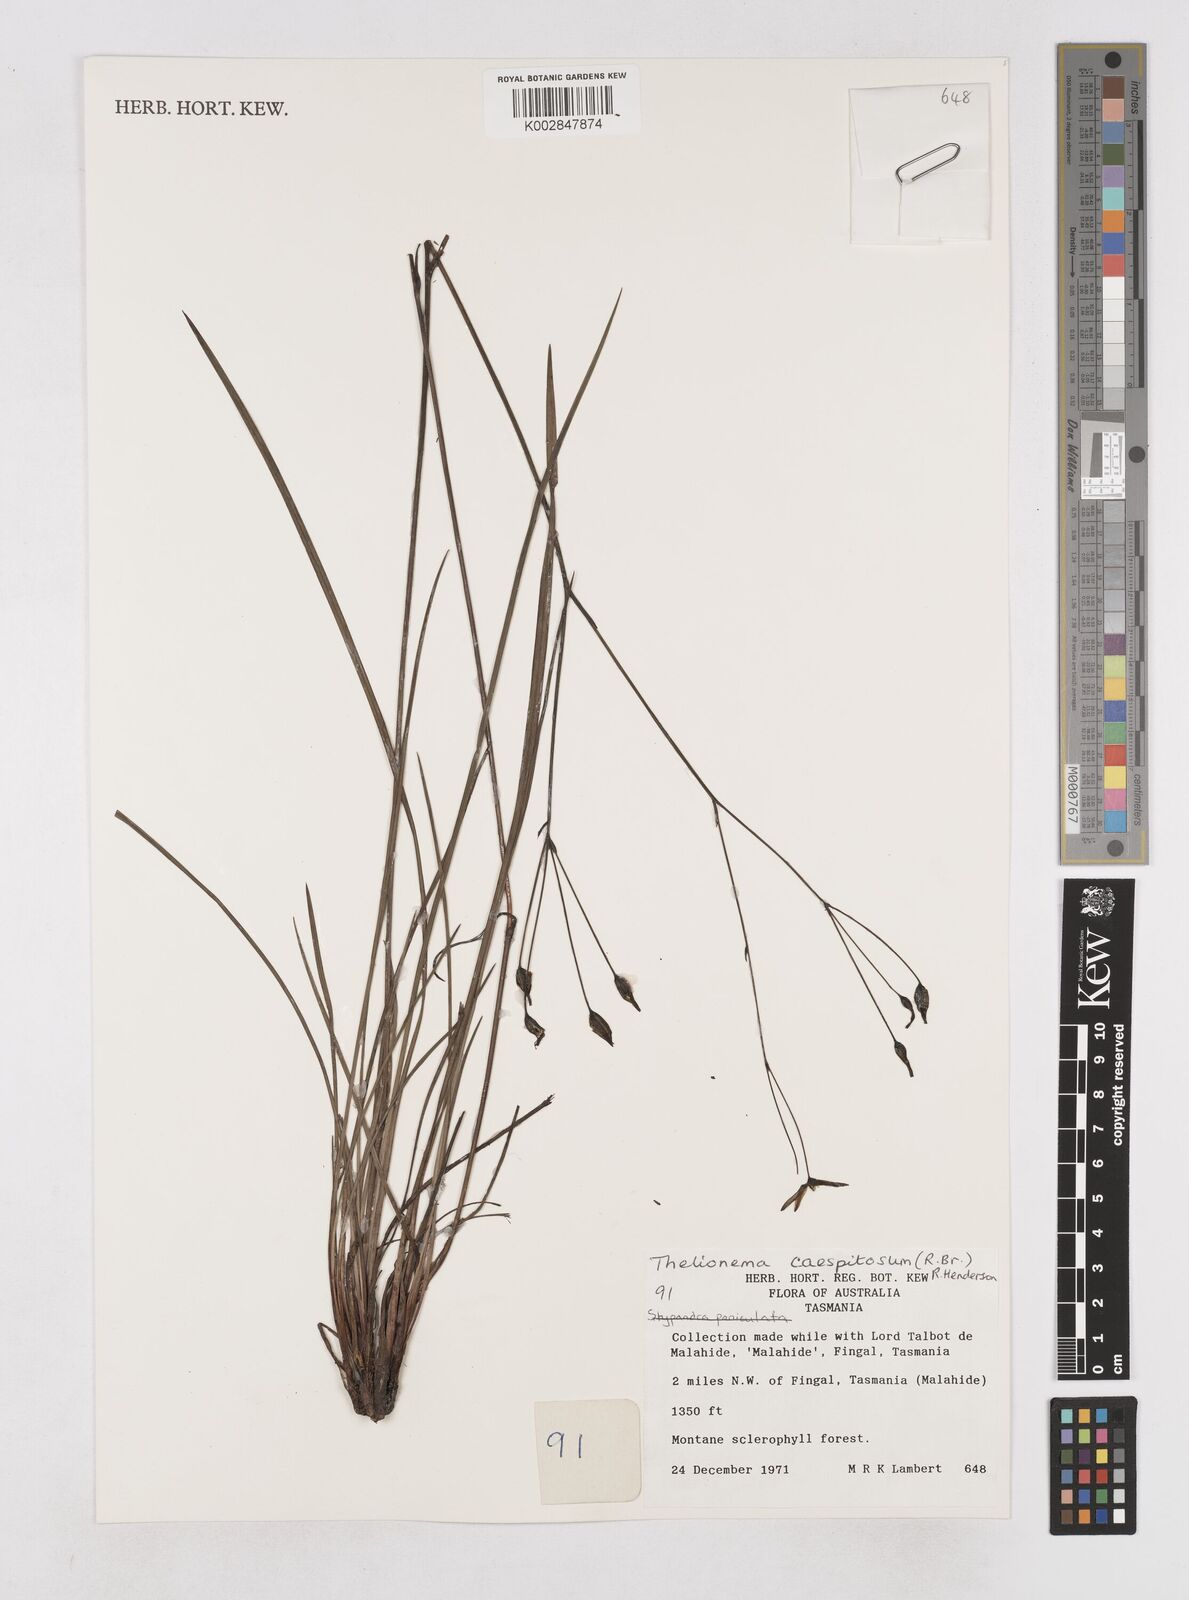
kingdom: Plantae
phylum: Tracheophyta
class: Liliopsida
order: Asparagales
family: Asphodelaceae
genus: Thelionema
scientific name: Thelionema caespitosum
